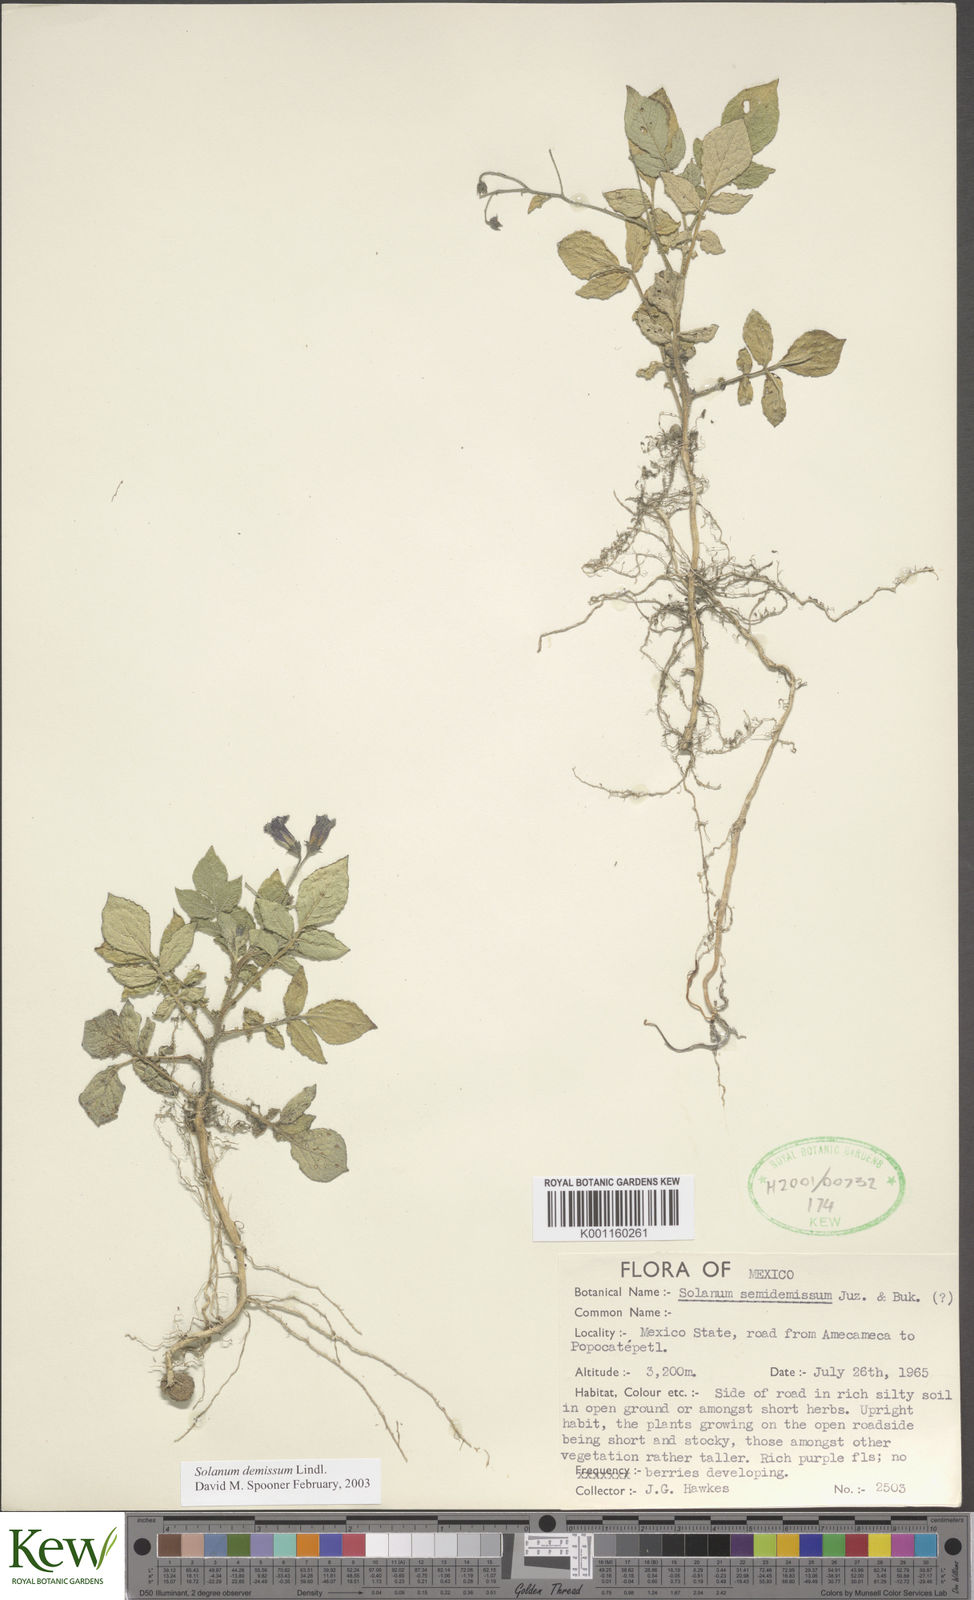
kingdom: Plantae
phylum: Tracheophyta
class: Magnoliopsida
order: Solanales
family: Solanaceae
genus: Solanum
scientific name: Solanum demissum
